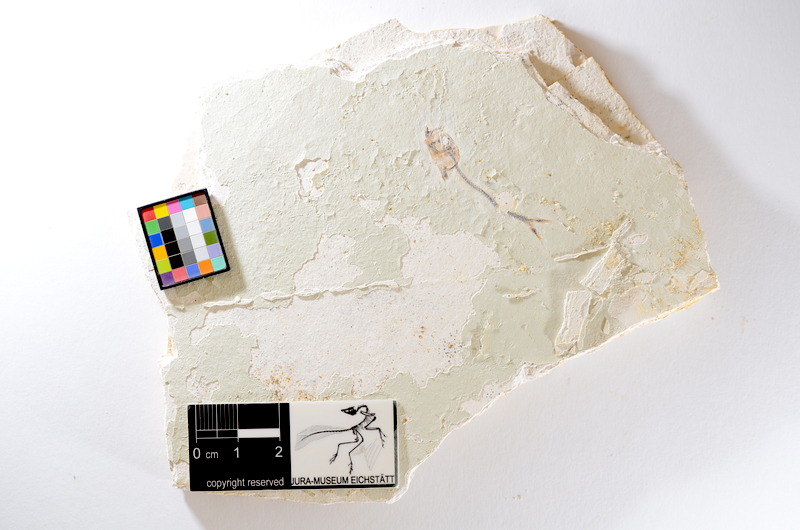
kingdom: Animalia
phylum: Chordata
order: Salmoniformes
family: Orthogonikleithridae
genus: Orthogonikleithrus
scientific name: Orthogonikleithrus hoelli
